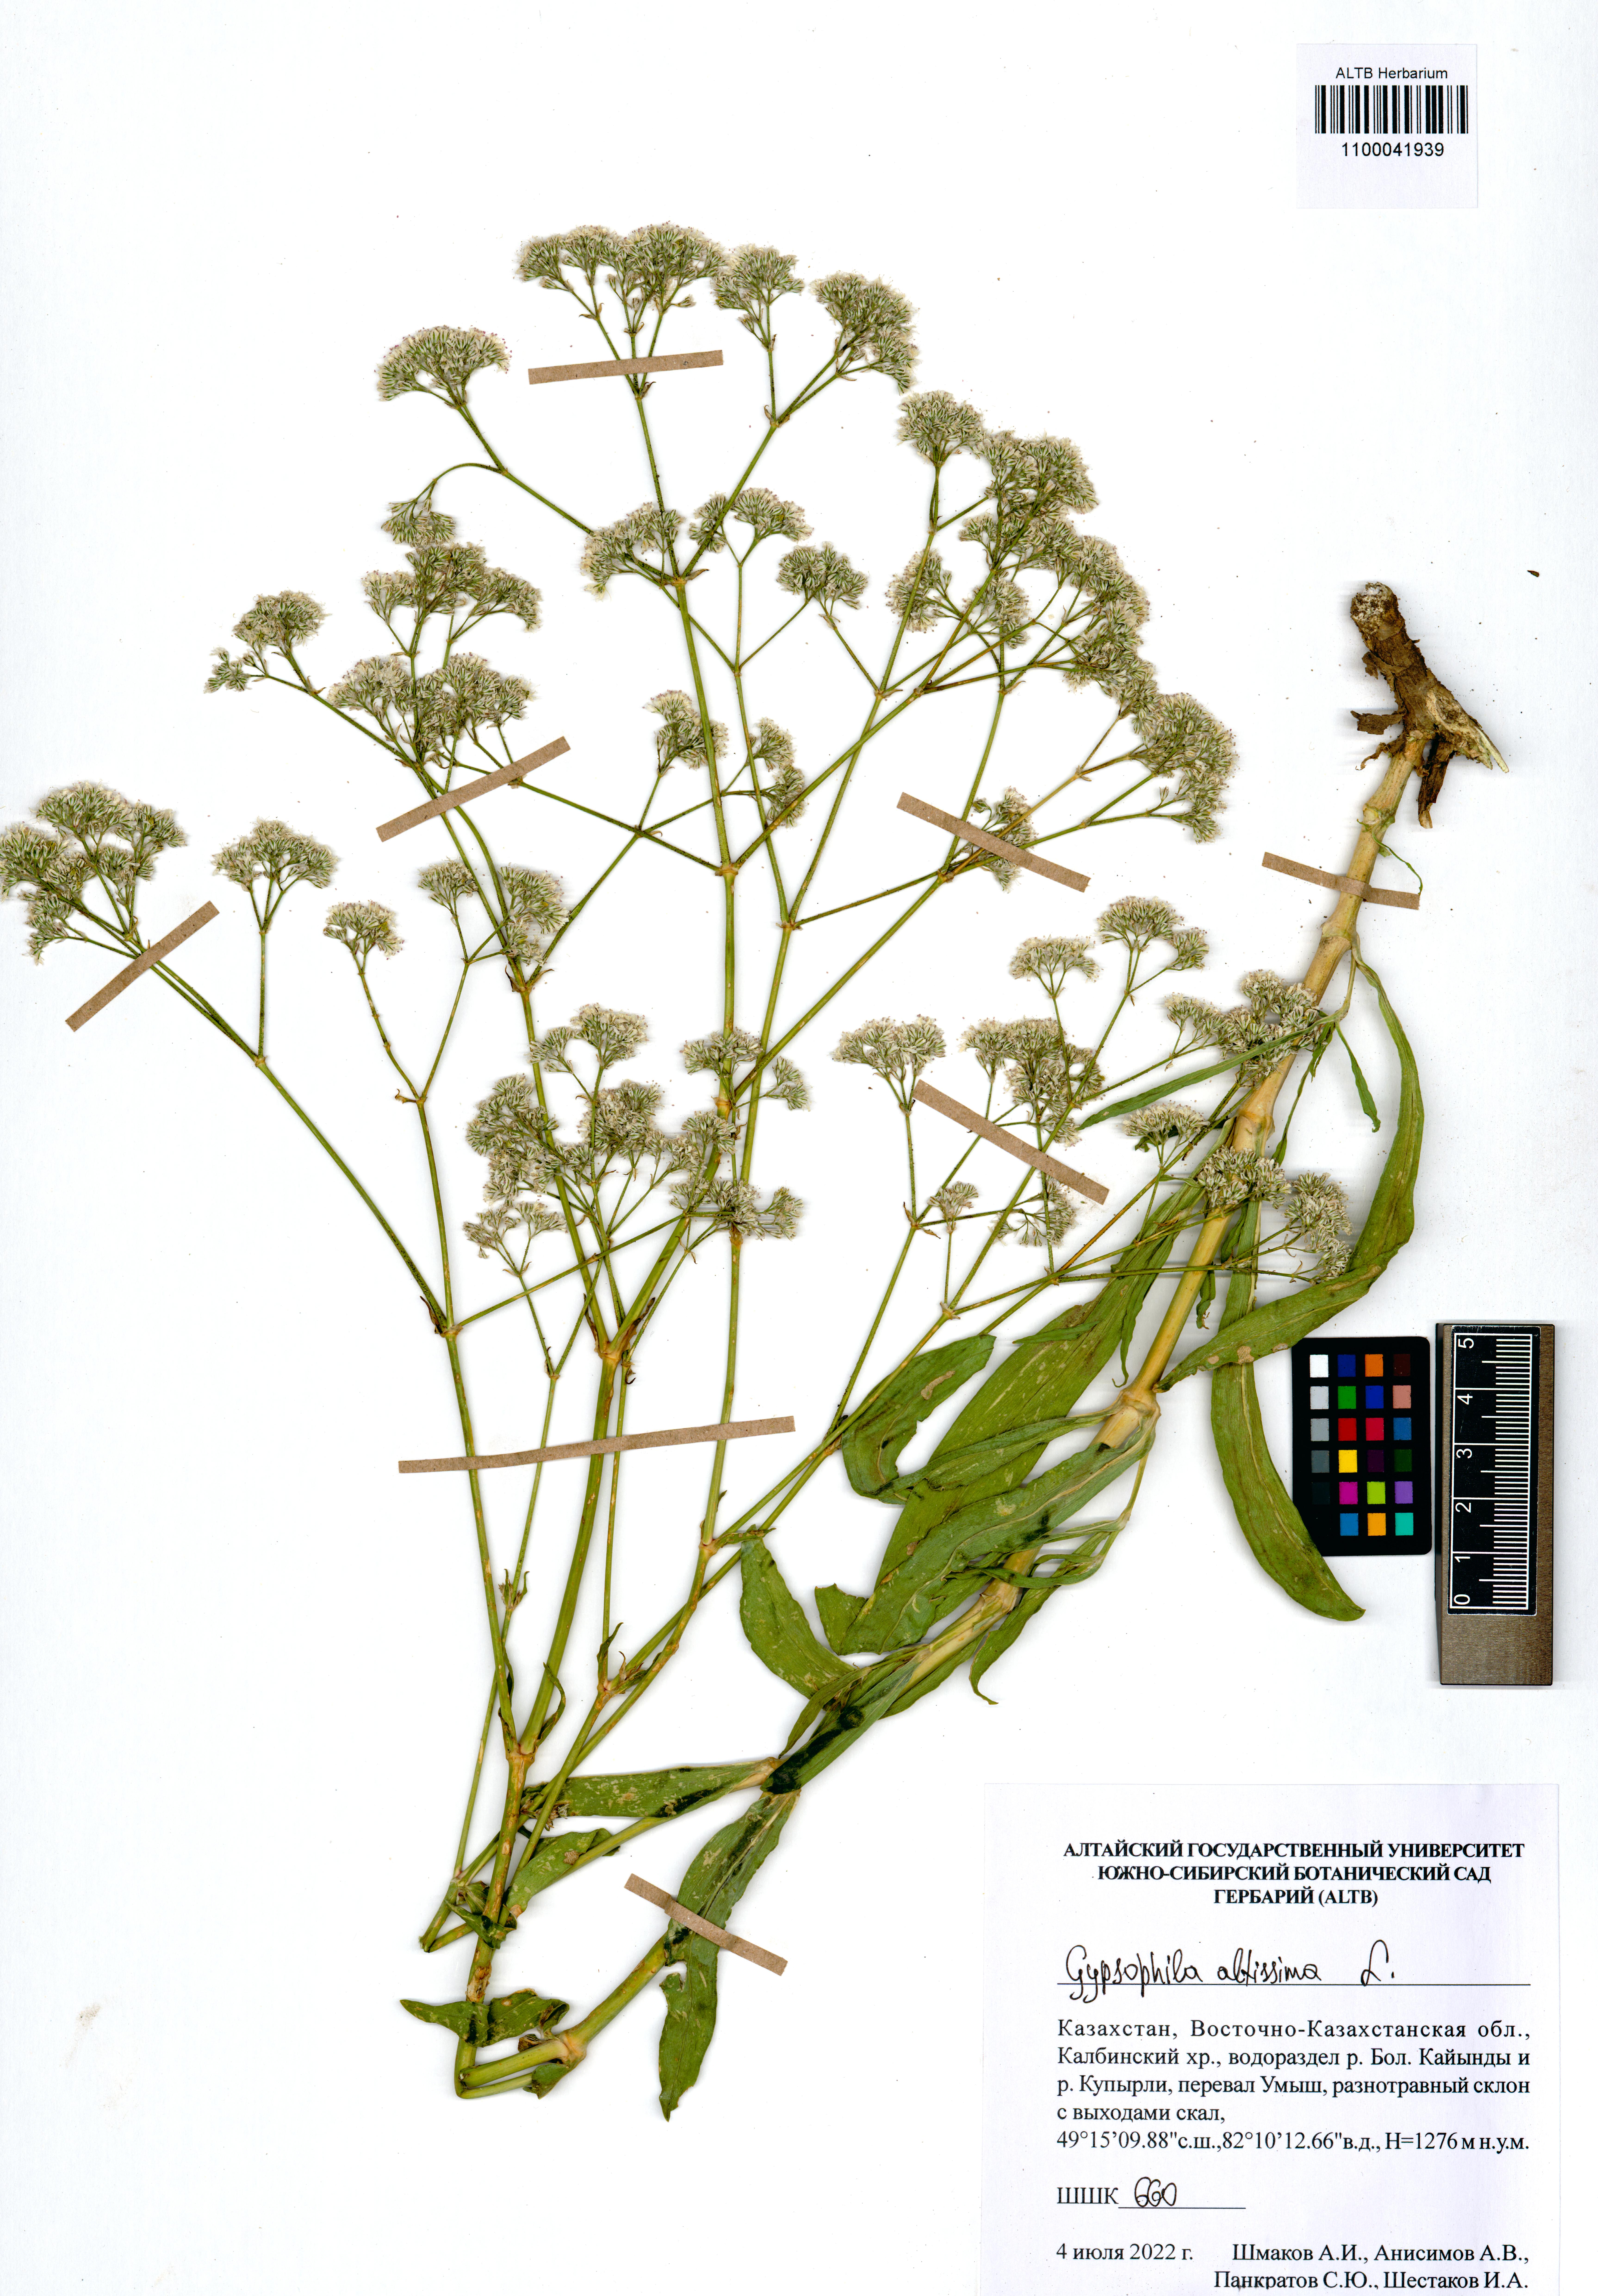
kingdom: Plantae
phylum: Tracheophyta
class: Magnoliopsida
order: Caryophyllales
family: Caryophyllaceae
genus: Gypsophila
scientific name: Gypsophila altissima
